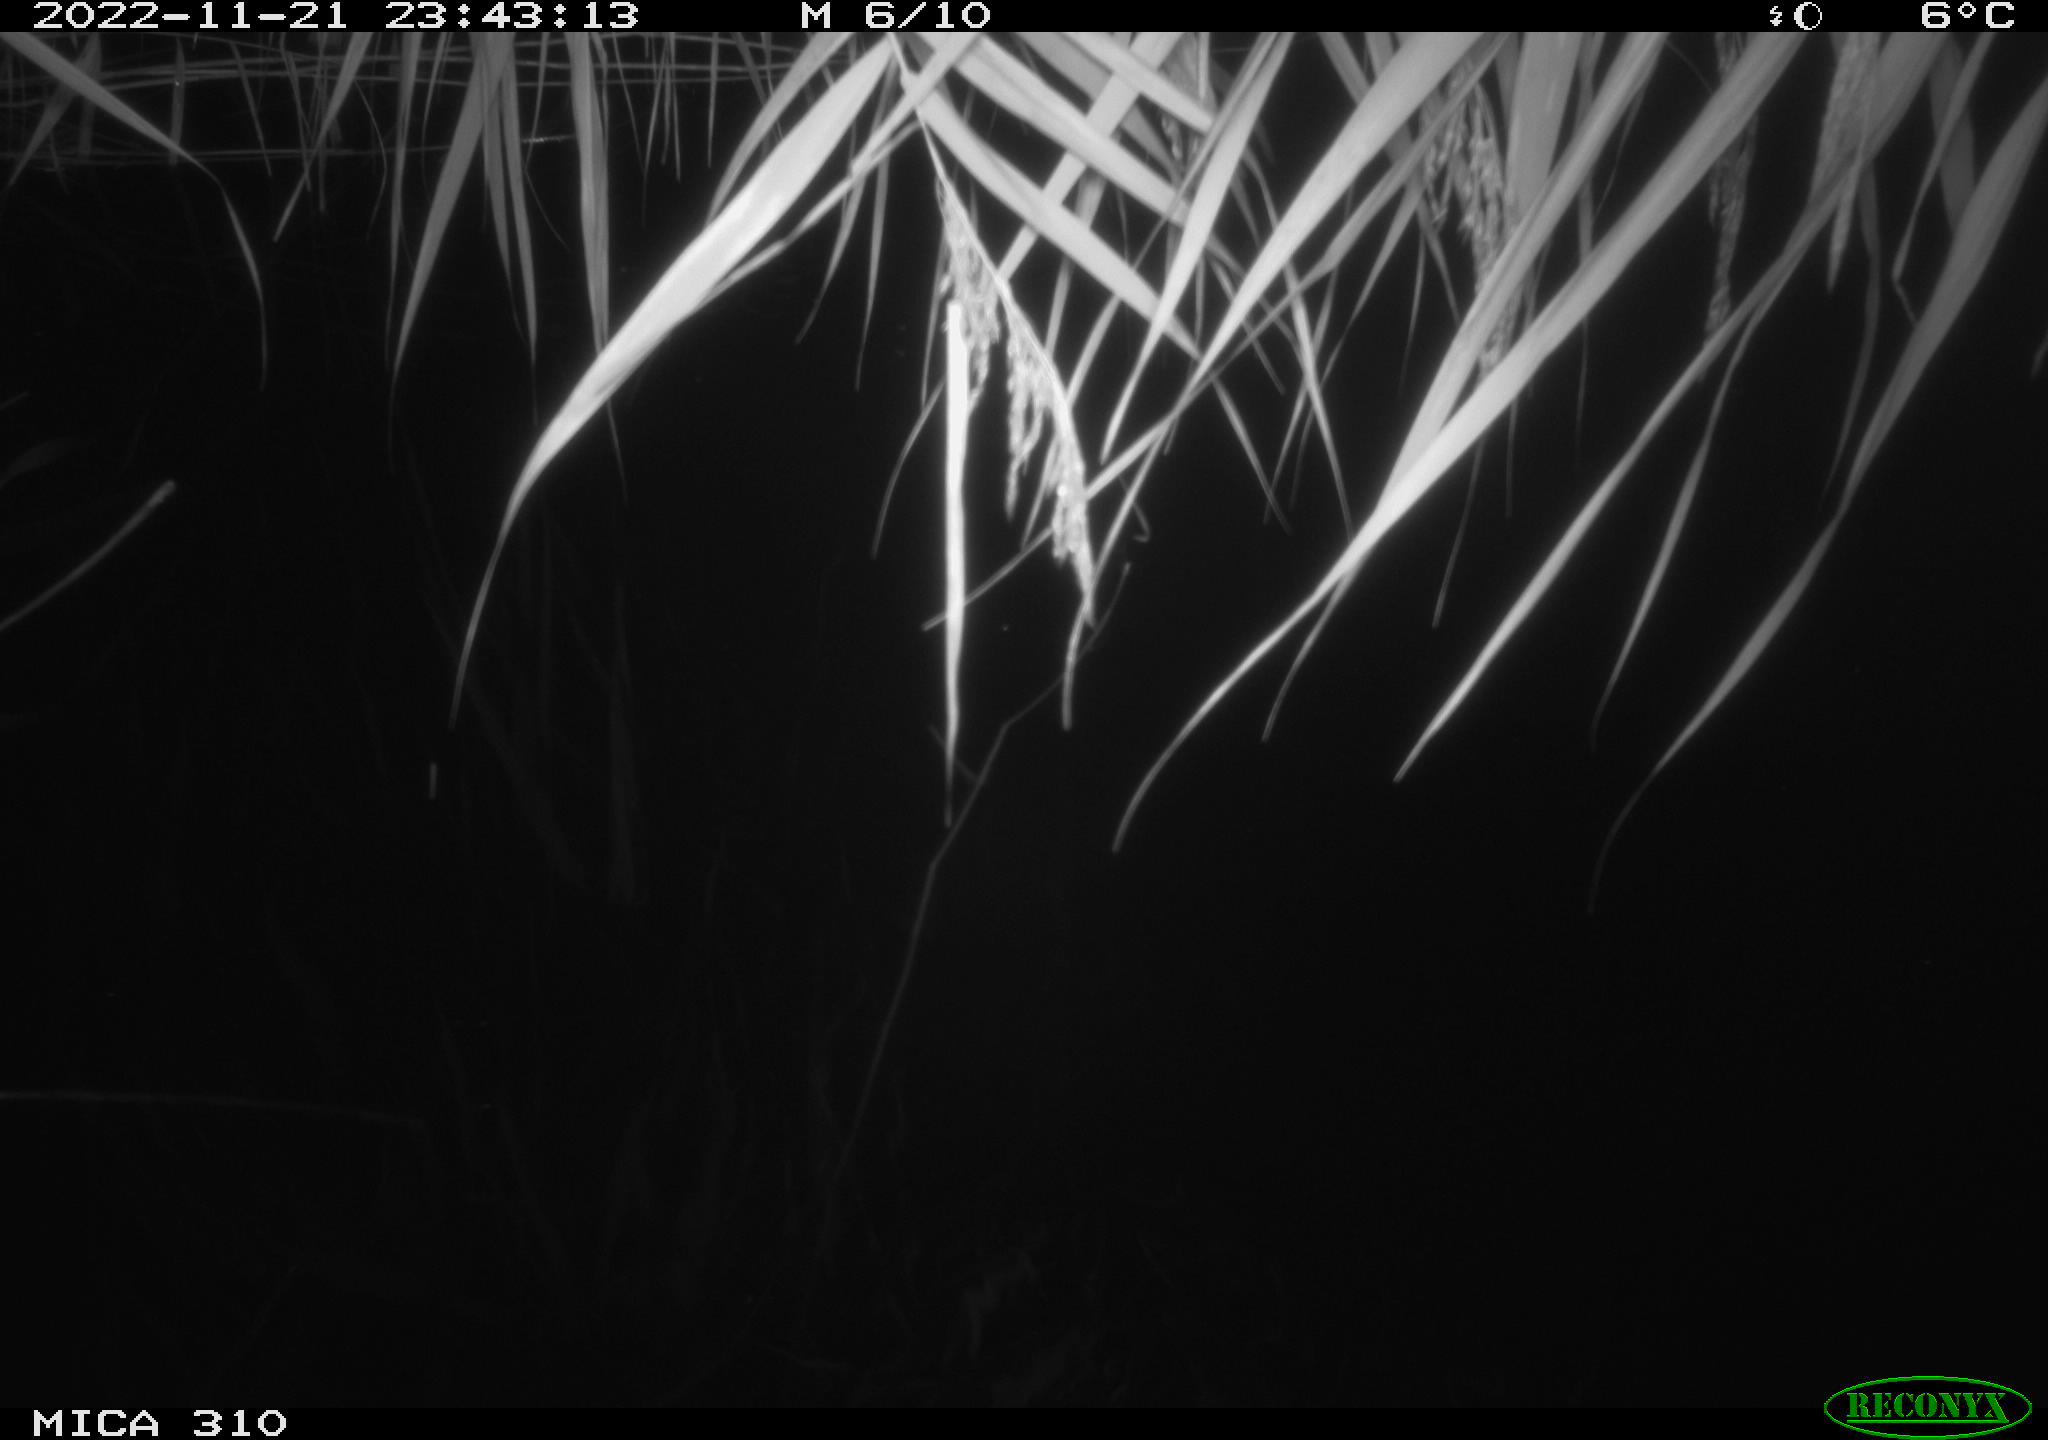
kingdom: Animalia
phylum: Chordata
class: Mammalia
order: Rodentia
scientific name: Rodentia
